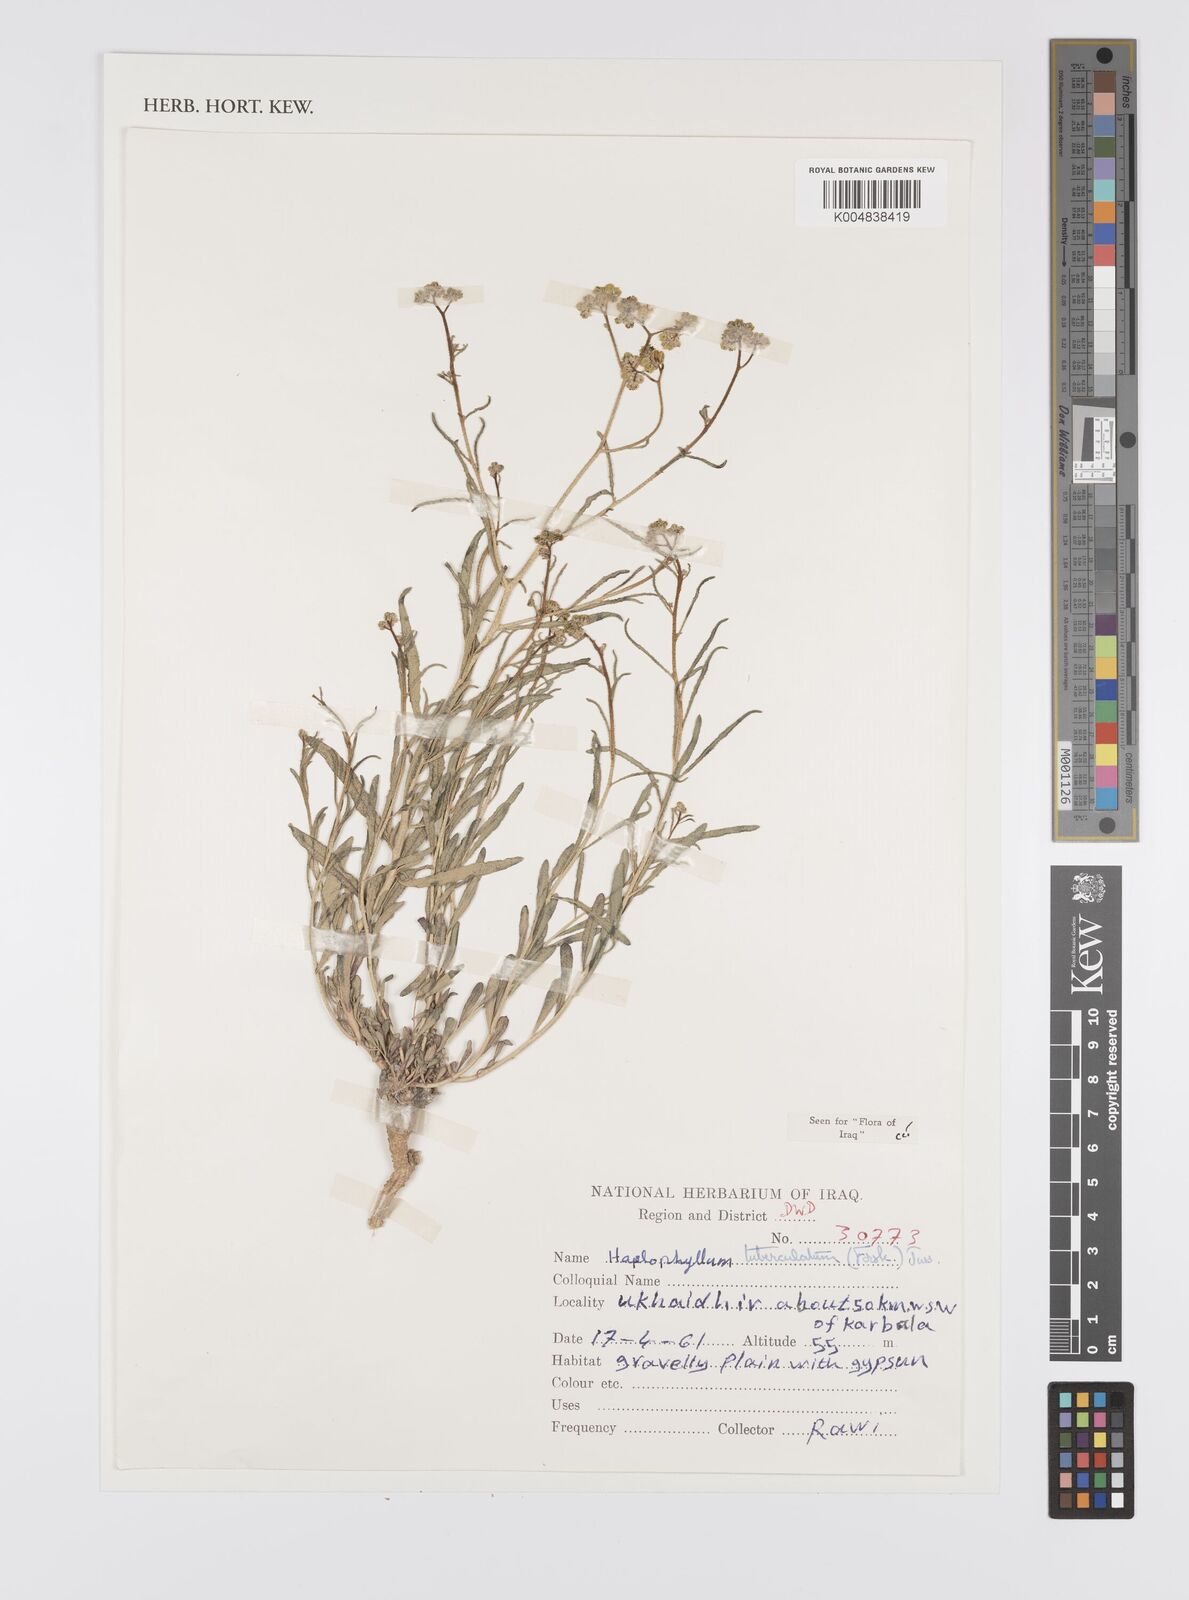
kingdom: Plantae
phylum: Tracheophyta
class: Magnoliopsida
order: Sapindales
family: Rutaceae
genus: Haplophyllum
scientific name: Haplophyllum tuberculatum
